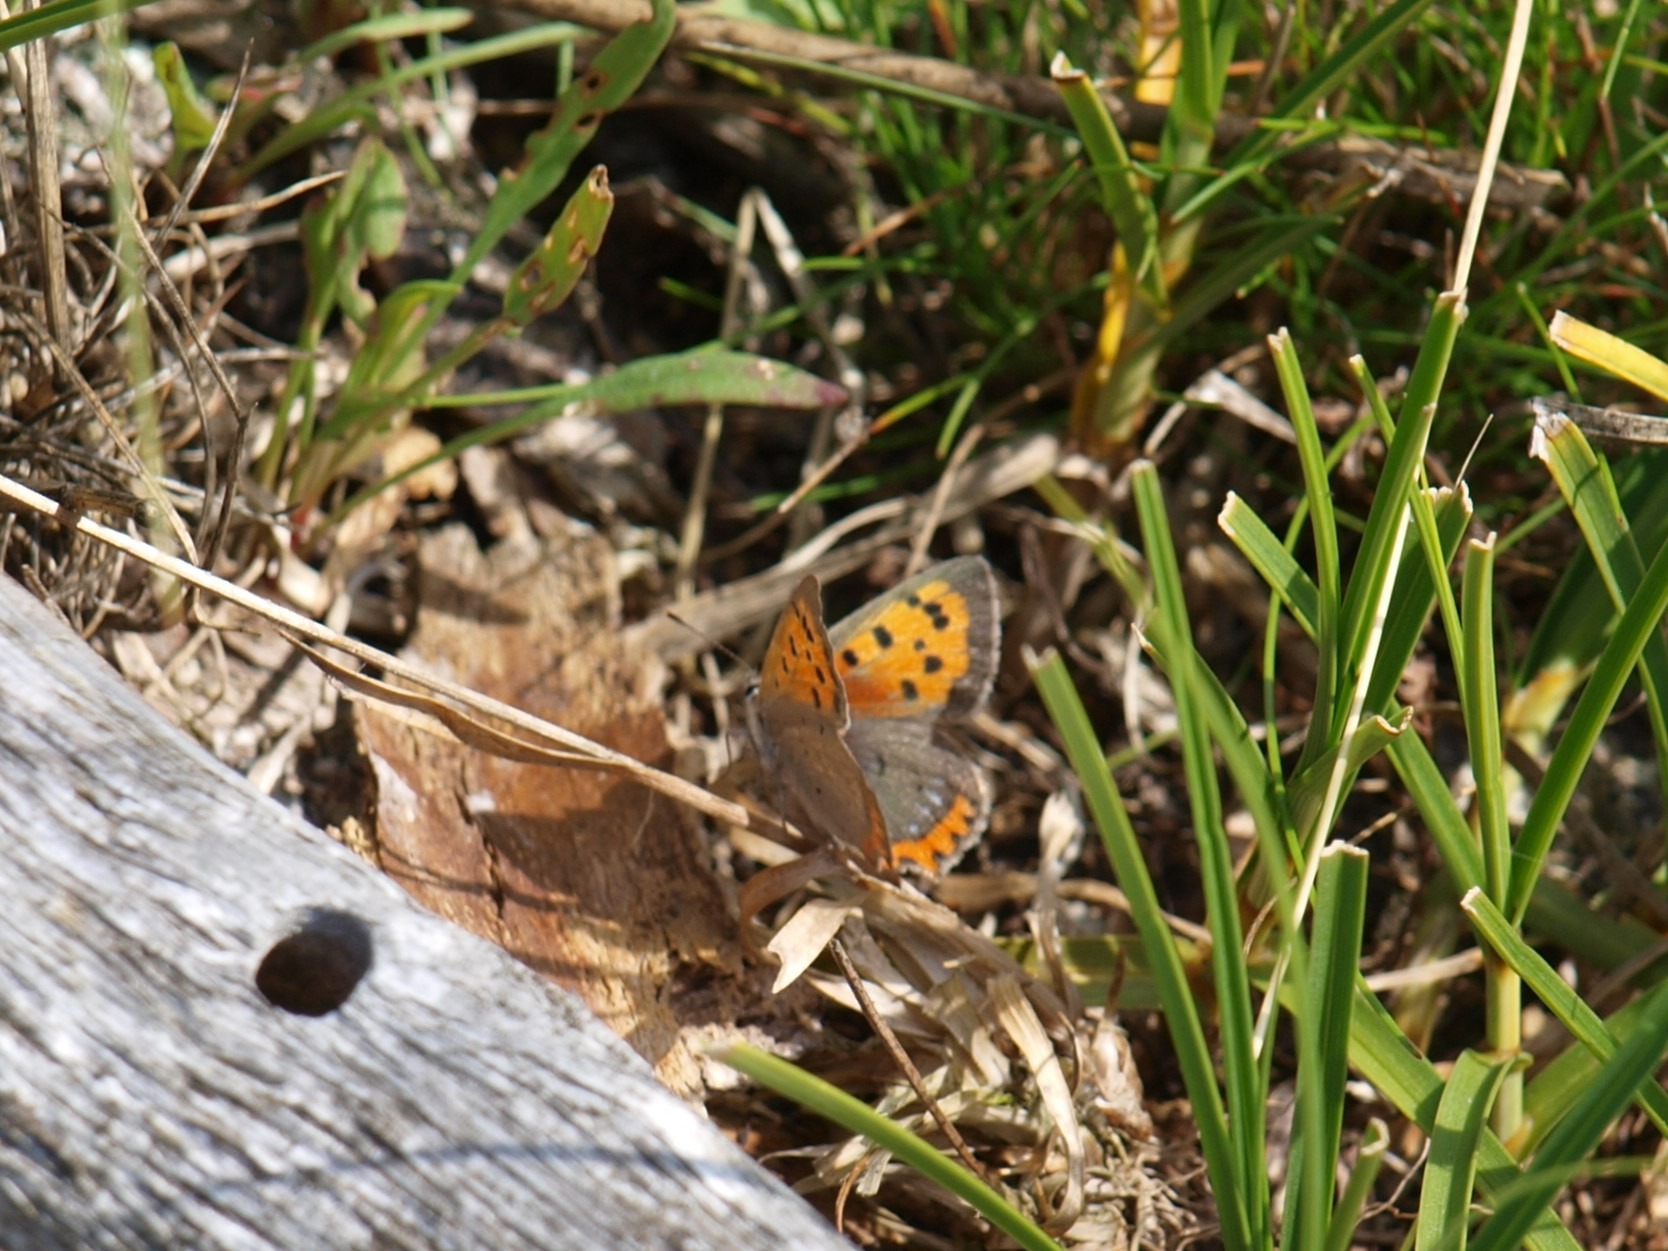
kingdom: Animalia
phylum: Arthropoda
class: Insecta
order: Lepidoptera
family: Lycaenidae
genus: Lycaena
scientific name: Lycaena phlaeas
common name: Lille ildfugl
